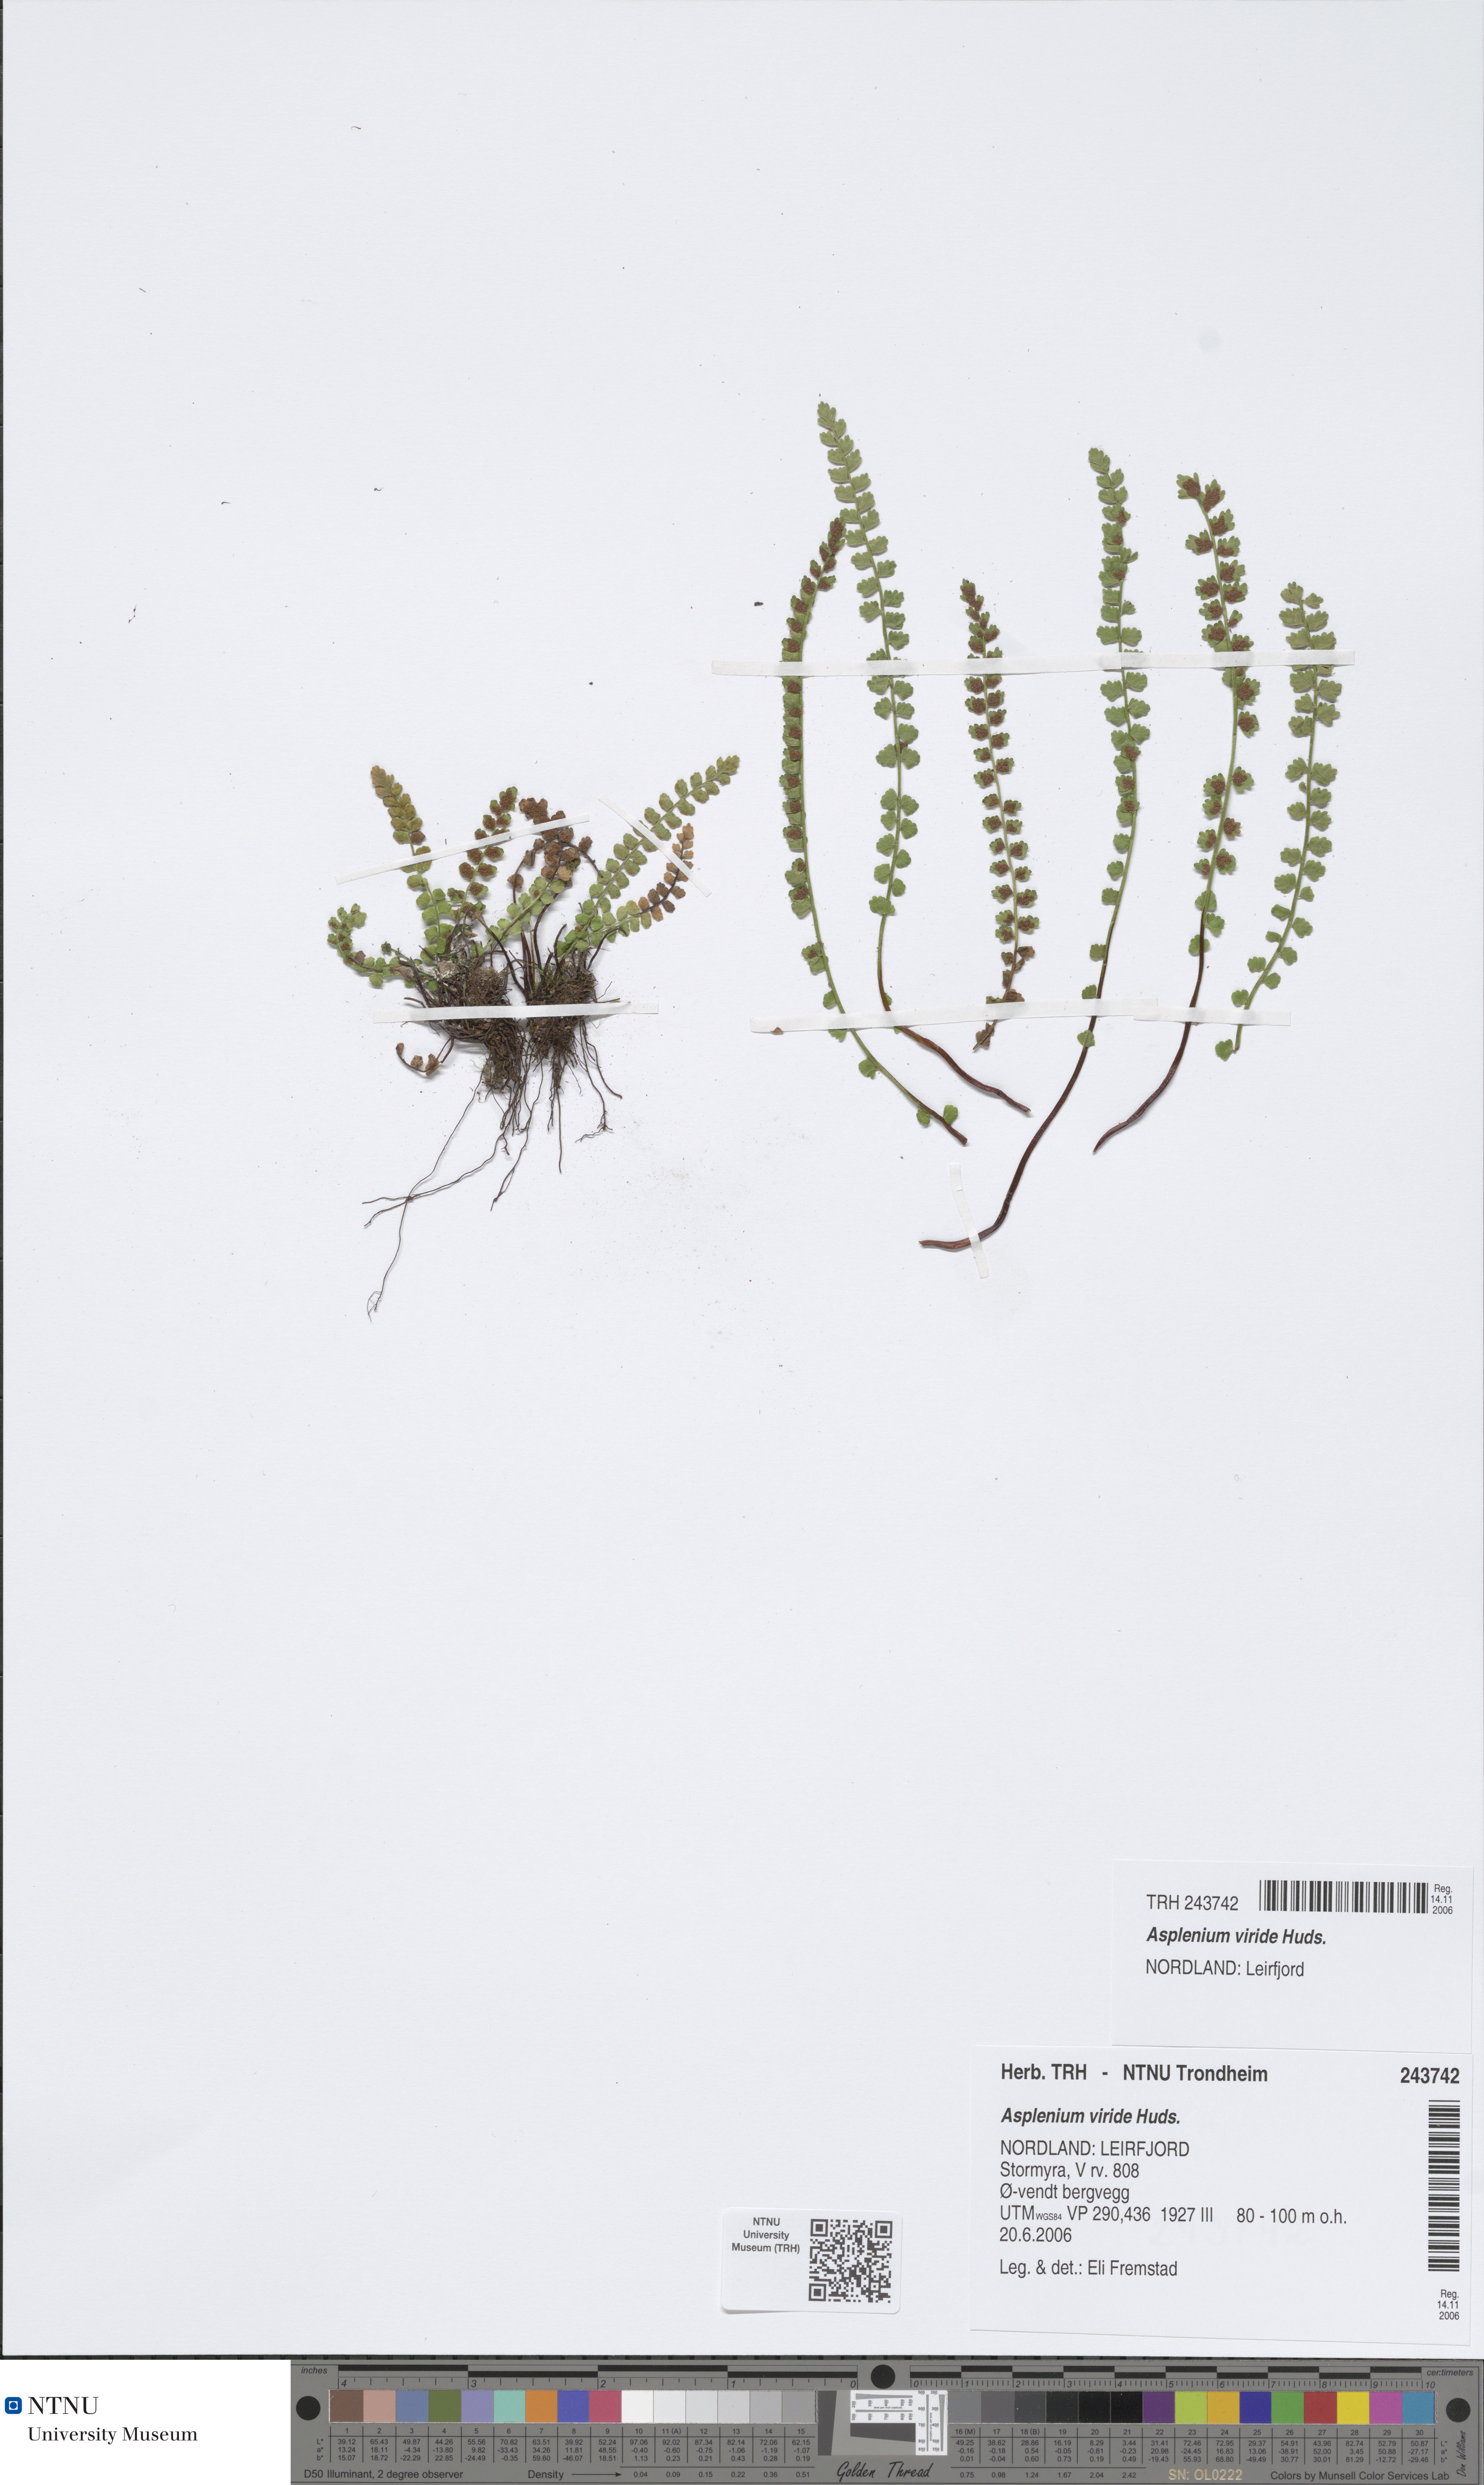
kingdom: Plantae
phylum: Tracheophyta
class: Polypodiopsida
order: Polypodiales
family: Aspleniaceae
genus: Asplenium
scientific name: Asplenium viride
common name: Green spleenwort
